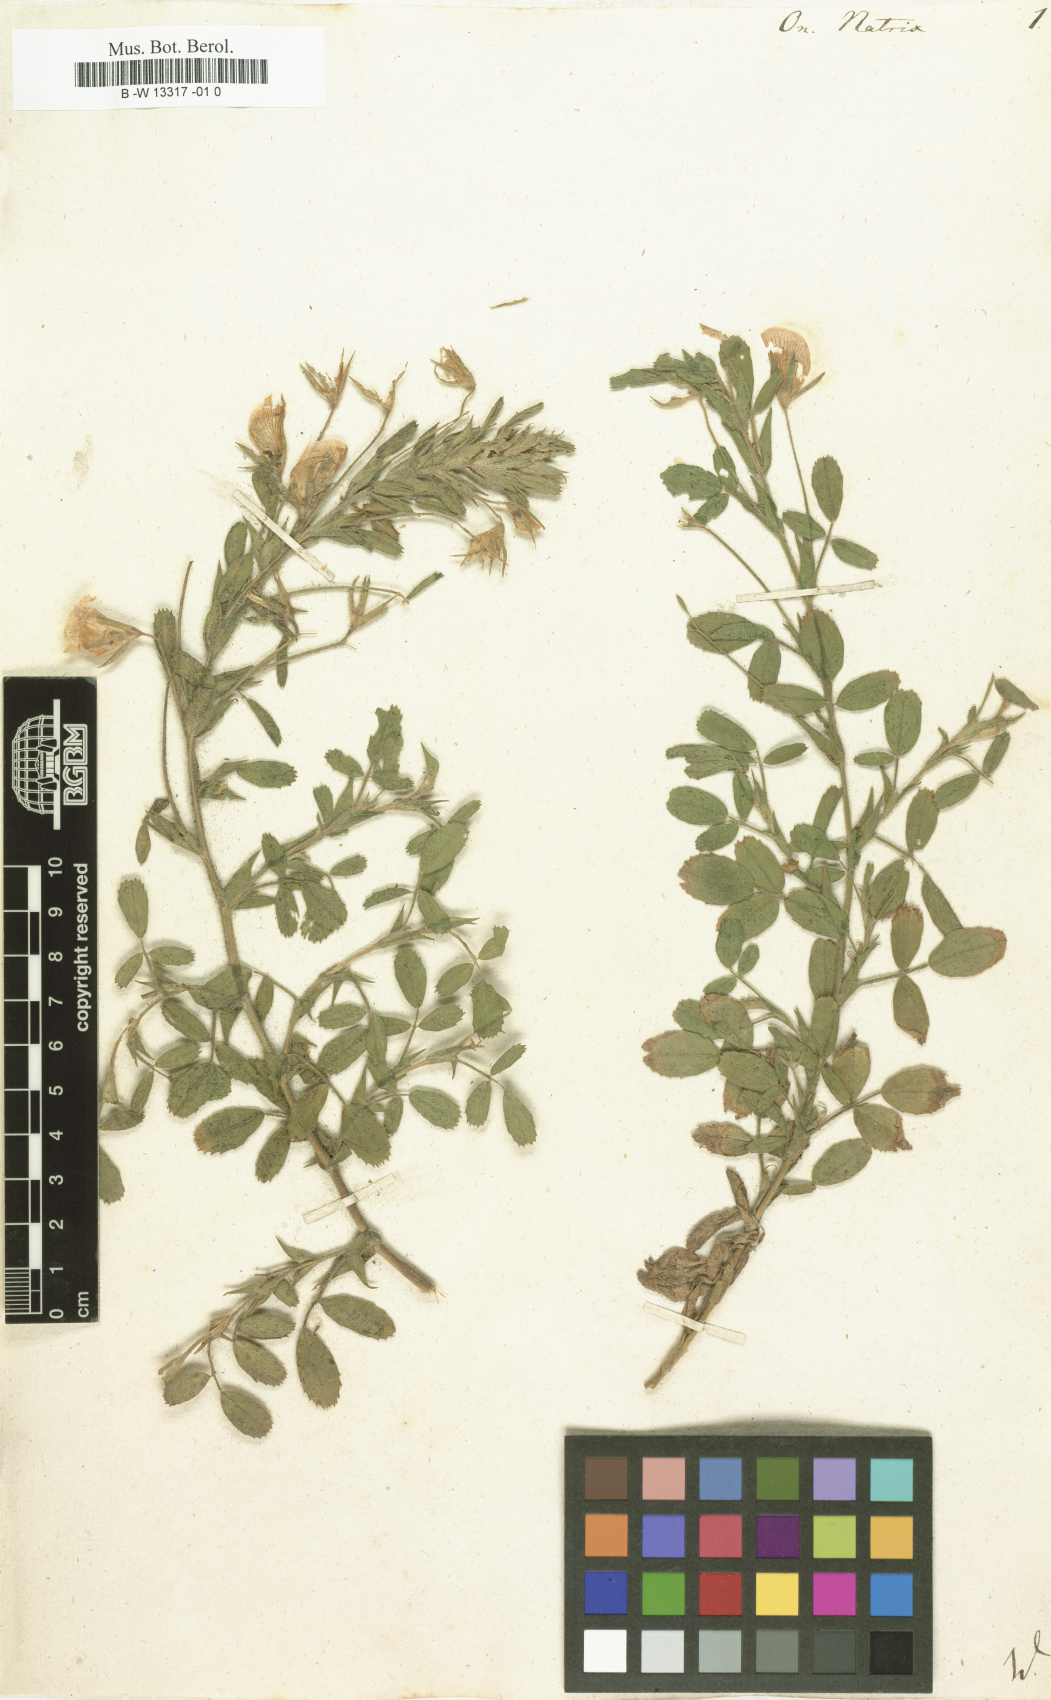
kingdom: Plantae
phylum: Tracheophyta
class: Magnoliopsida
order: Fabales
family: Fabaceae
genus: Ononis
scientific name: Ononis natrix
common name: Yellow restharrow
